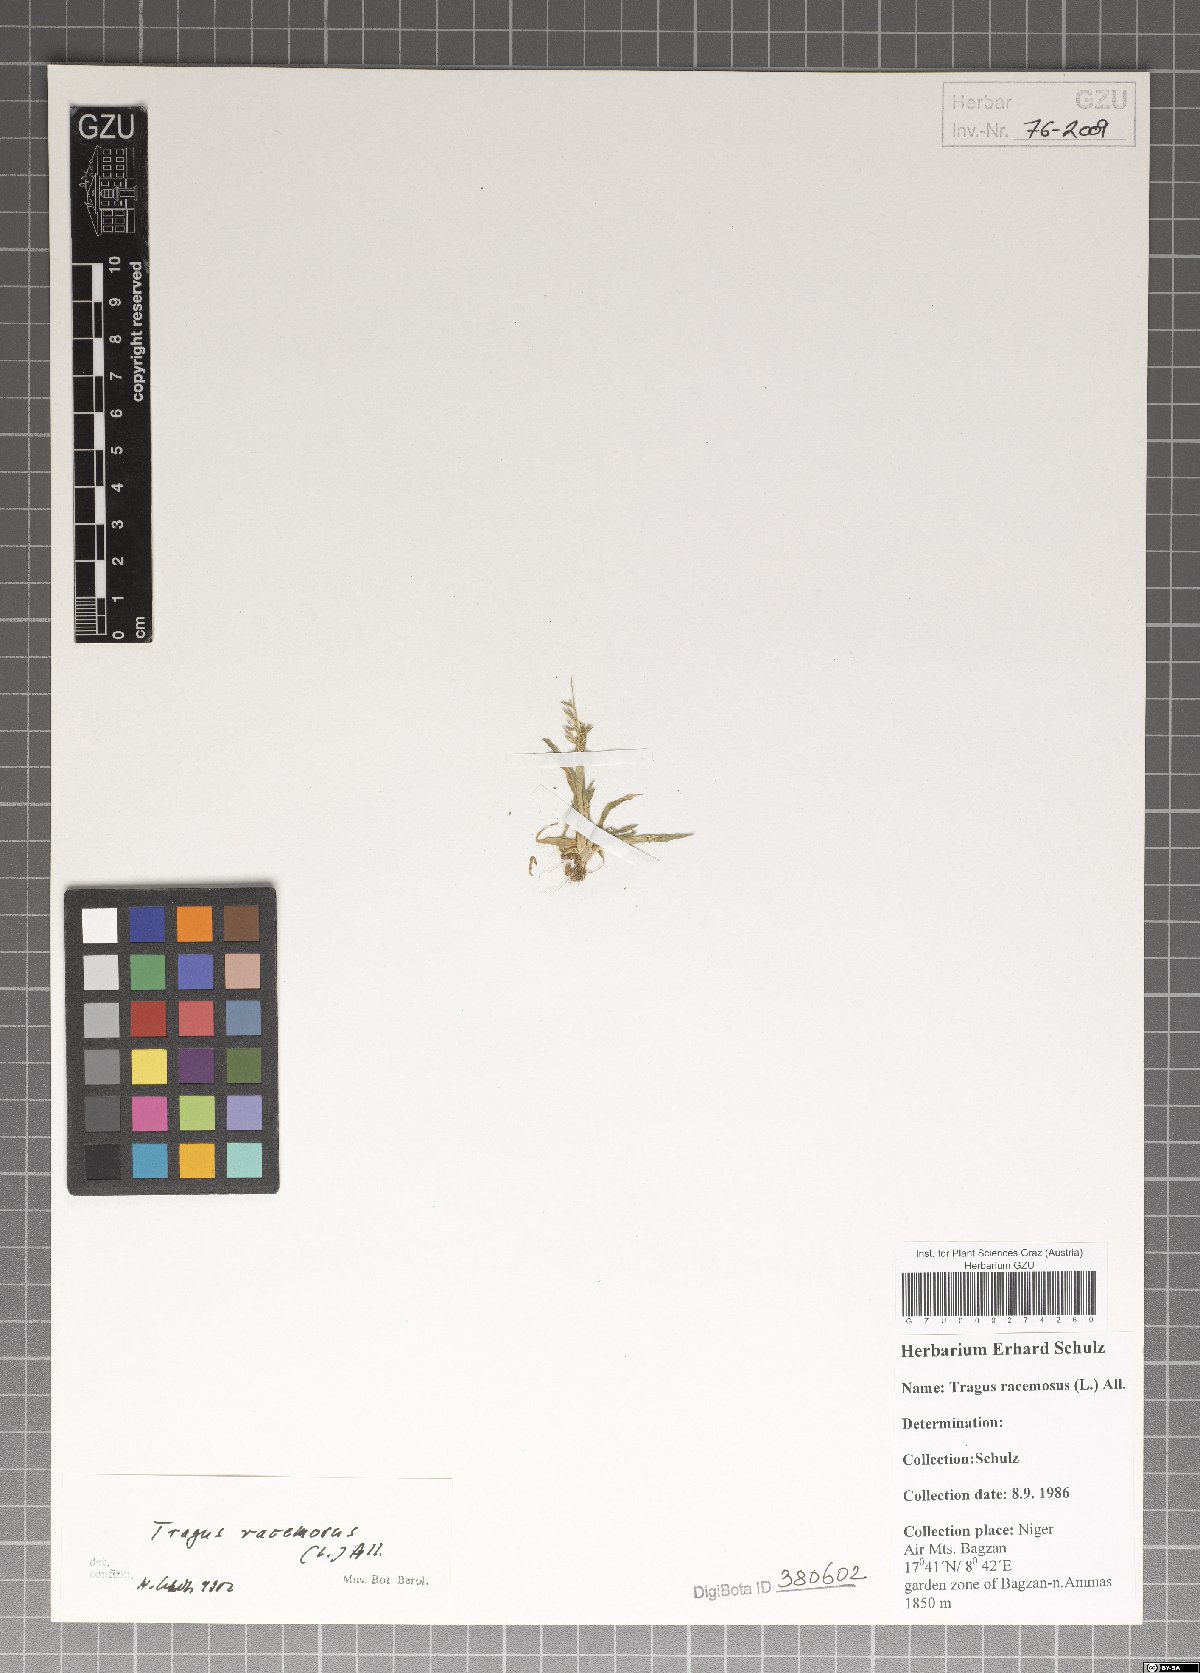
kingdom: Plantae
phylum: Tracheophyta
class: Liliopsida
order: Poales
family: Poaceae
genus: Tragus
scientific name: Tragus racemosus
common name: European bur-grass
